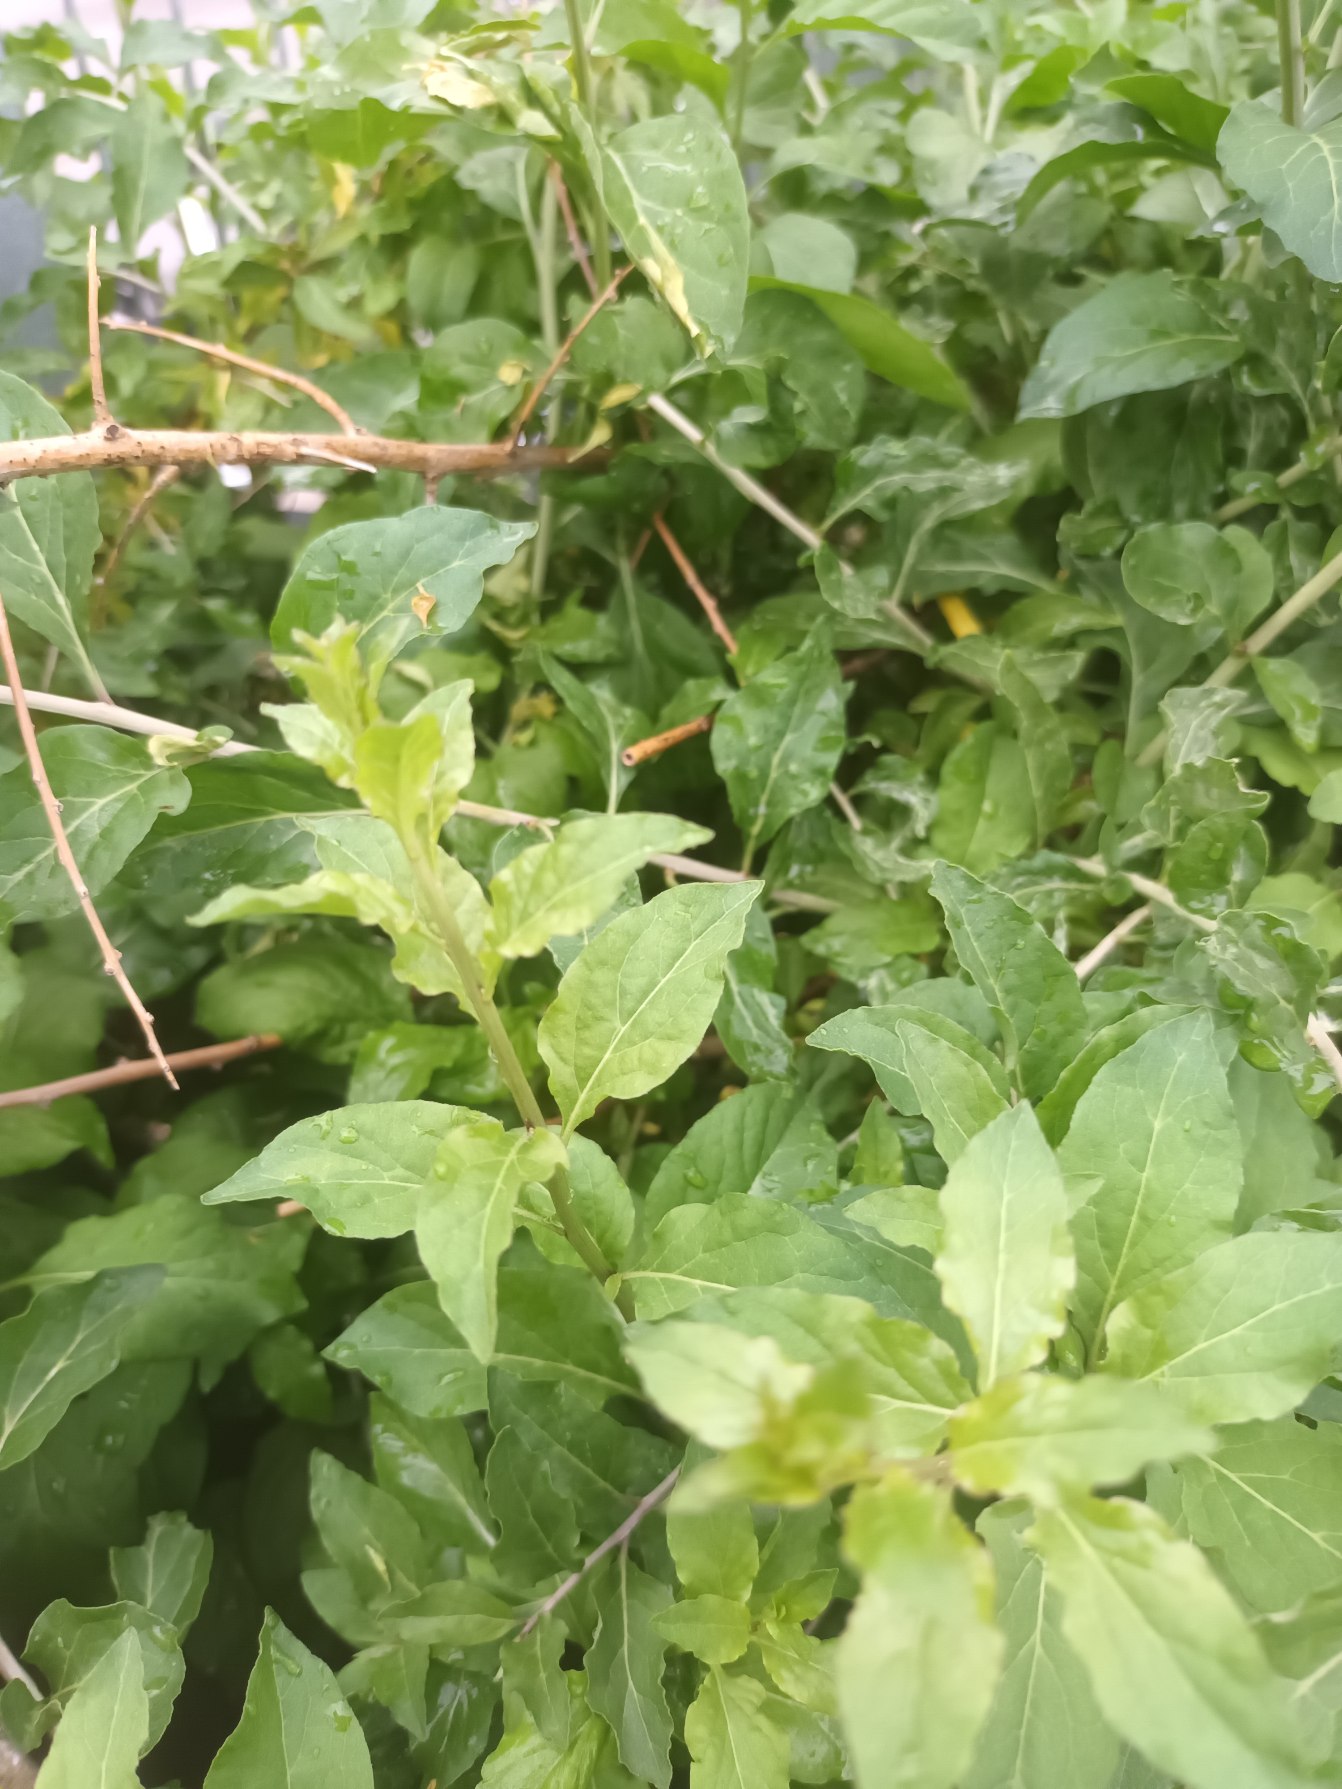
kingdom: Plantae
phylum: Tracheophyta
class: Magnoliopsida
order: Solanales
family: Solanaceae
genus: Lycium
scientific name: Lycium chinense
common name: Bredbladet bukketorn
